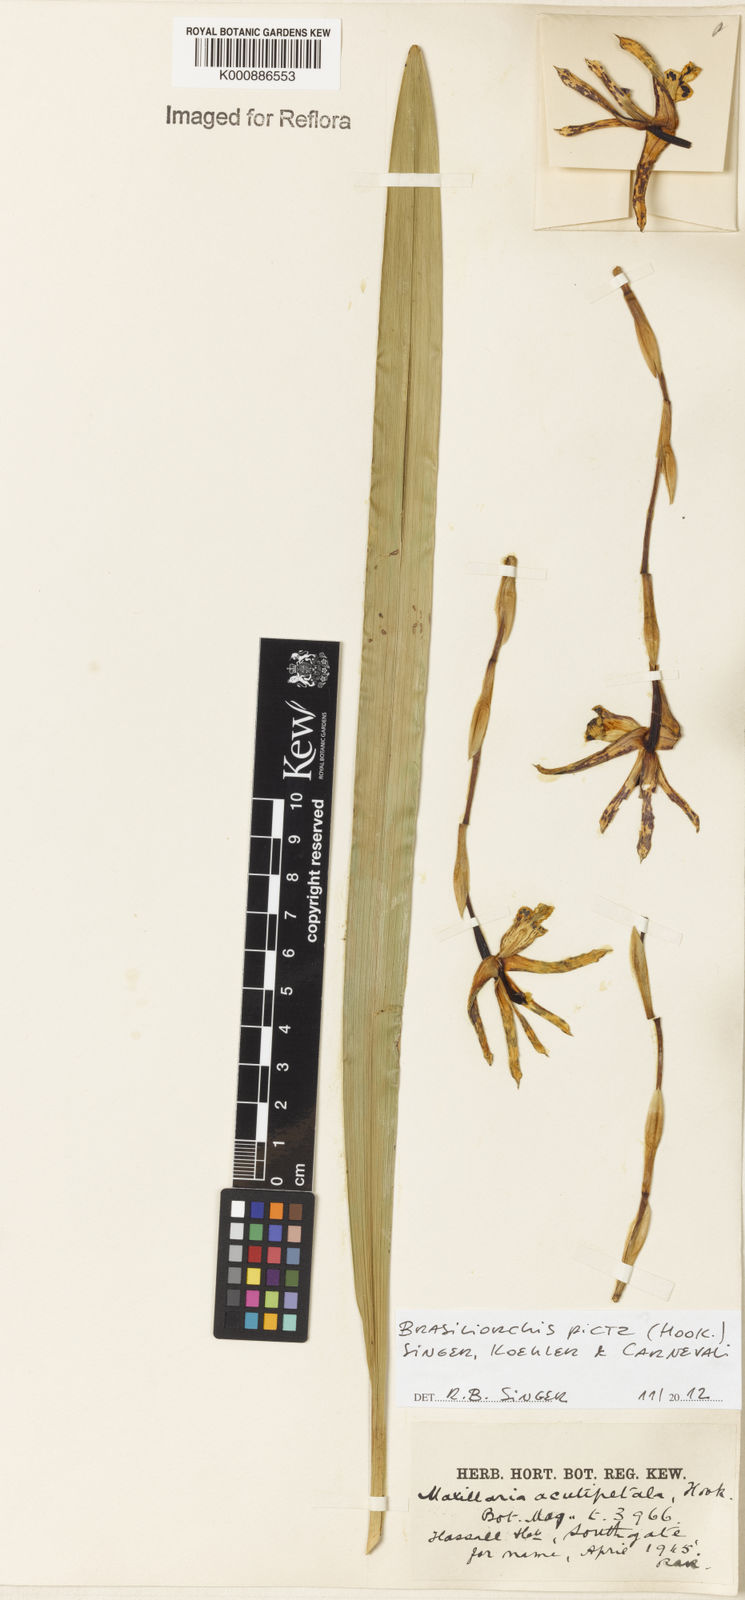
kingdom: Plantae
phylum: Tracheophyta
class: Liliopsida
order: Asparagales
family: Orchidaceae
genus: Maxillaria
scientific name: Maxillaria picta
